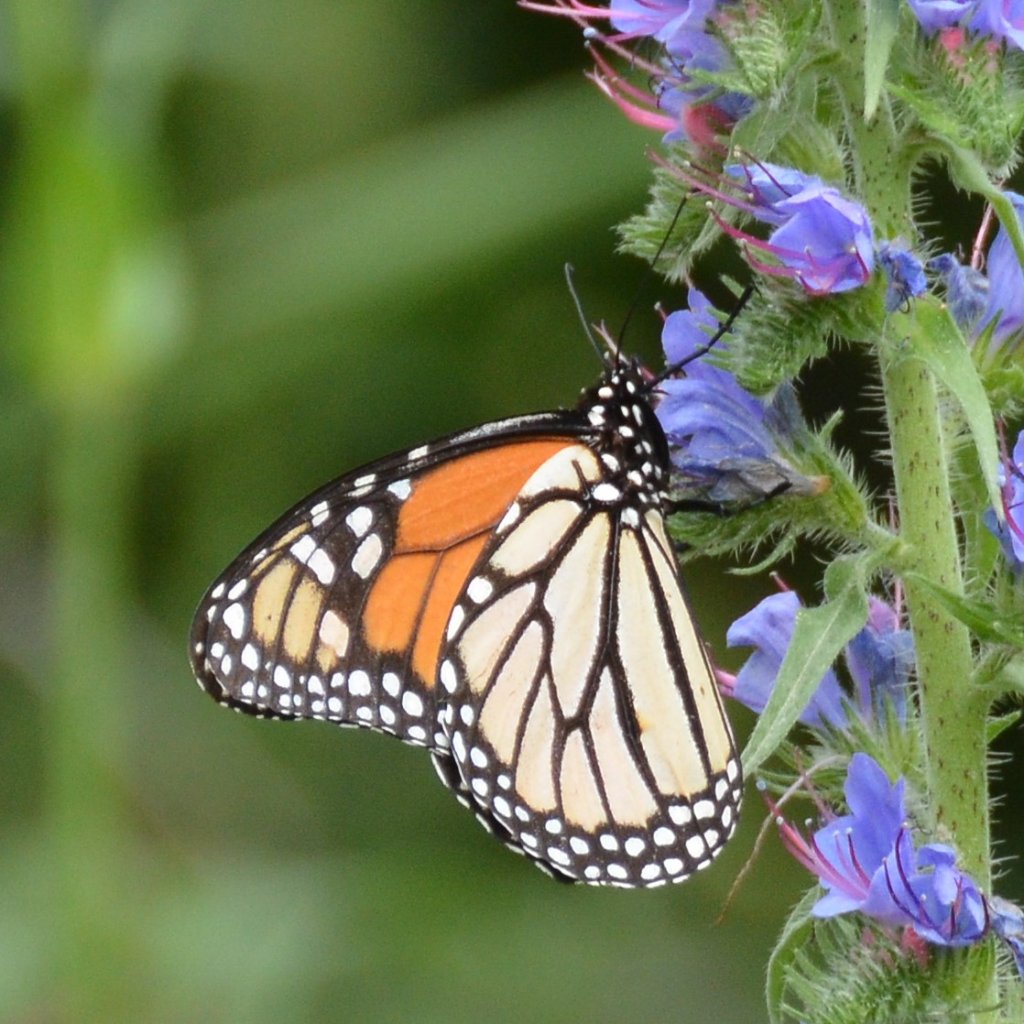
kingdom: Animalia
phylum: Arthropoda
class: Insecta
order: Lepidoptera
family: Nymphalidae
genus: Danaus
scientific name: Danaus plexippus
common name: Monarch
